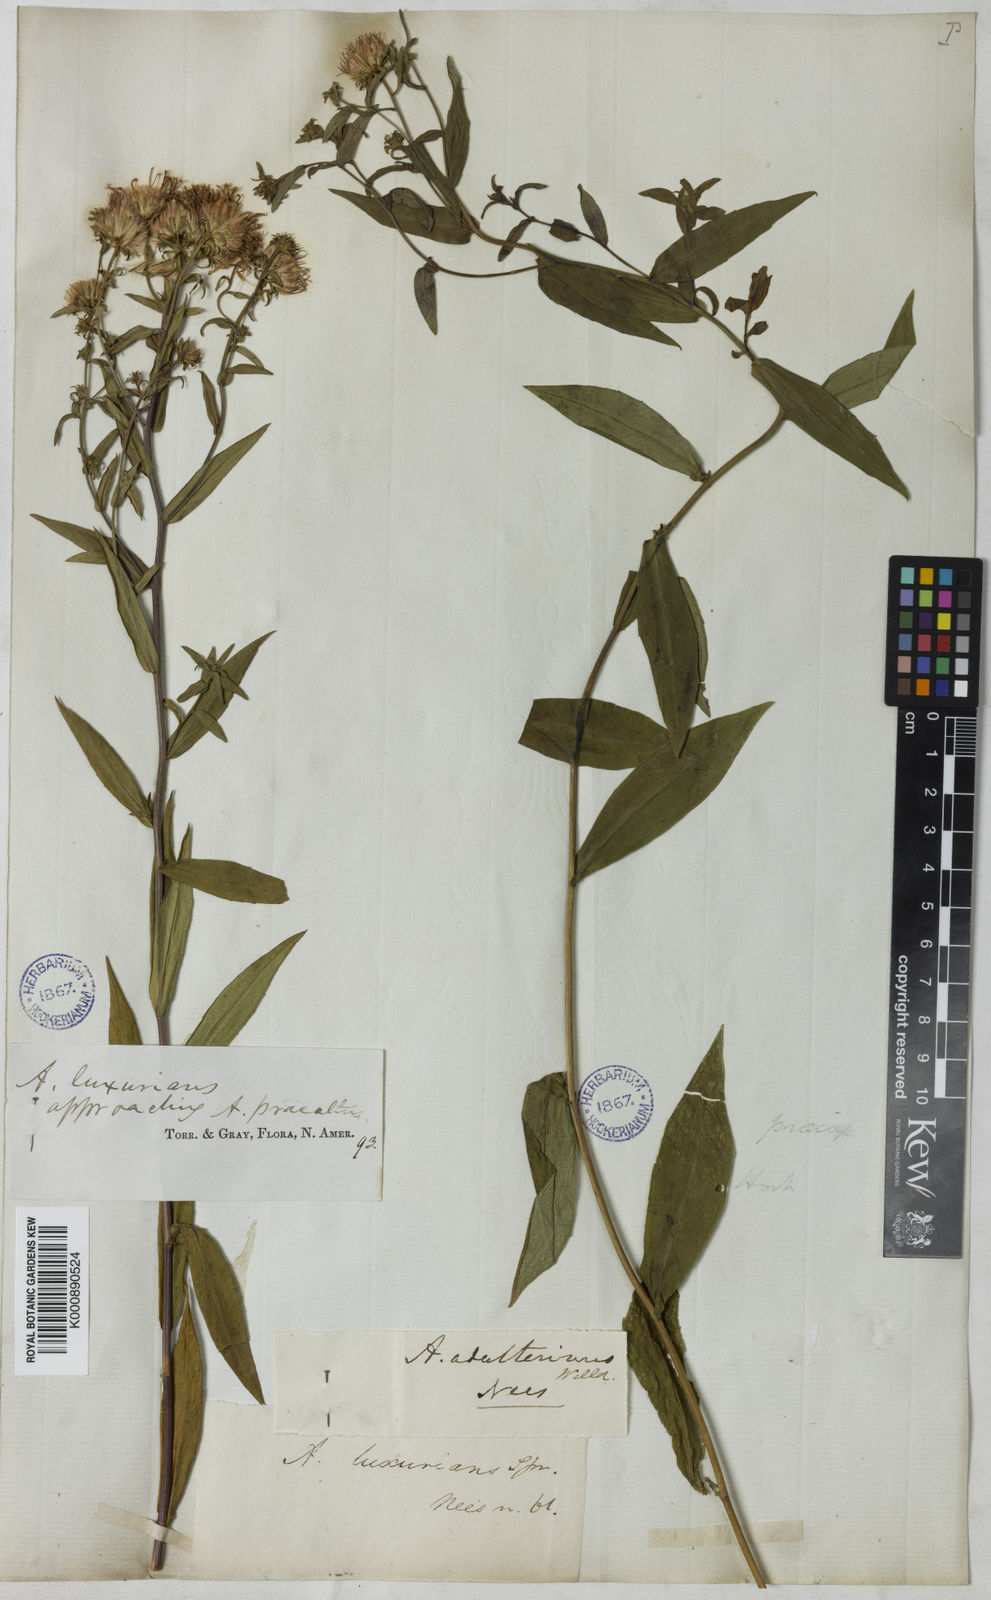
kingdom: Plantae
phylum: Tracheophyta
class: Magnoliopsida
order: Asterales
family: Asteraceae
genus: Symphyotrichum
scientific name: Symphyotrichum novi-belgii
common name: Michaelmas daisy
